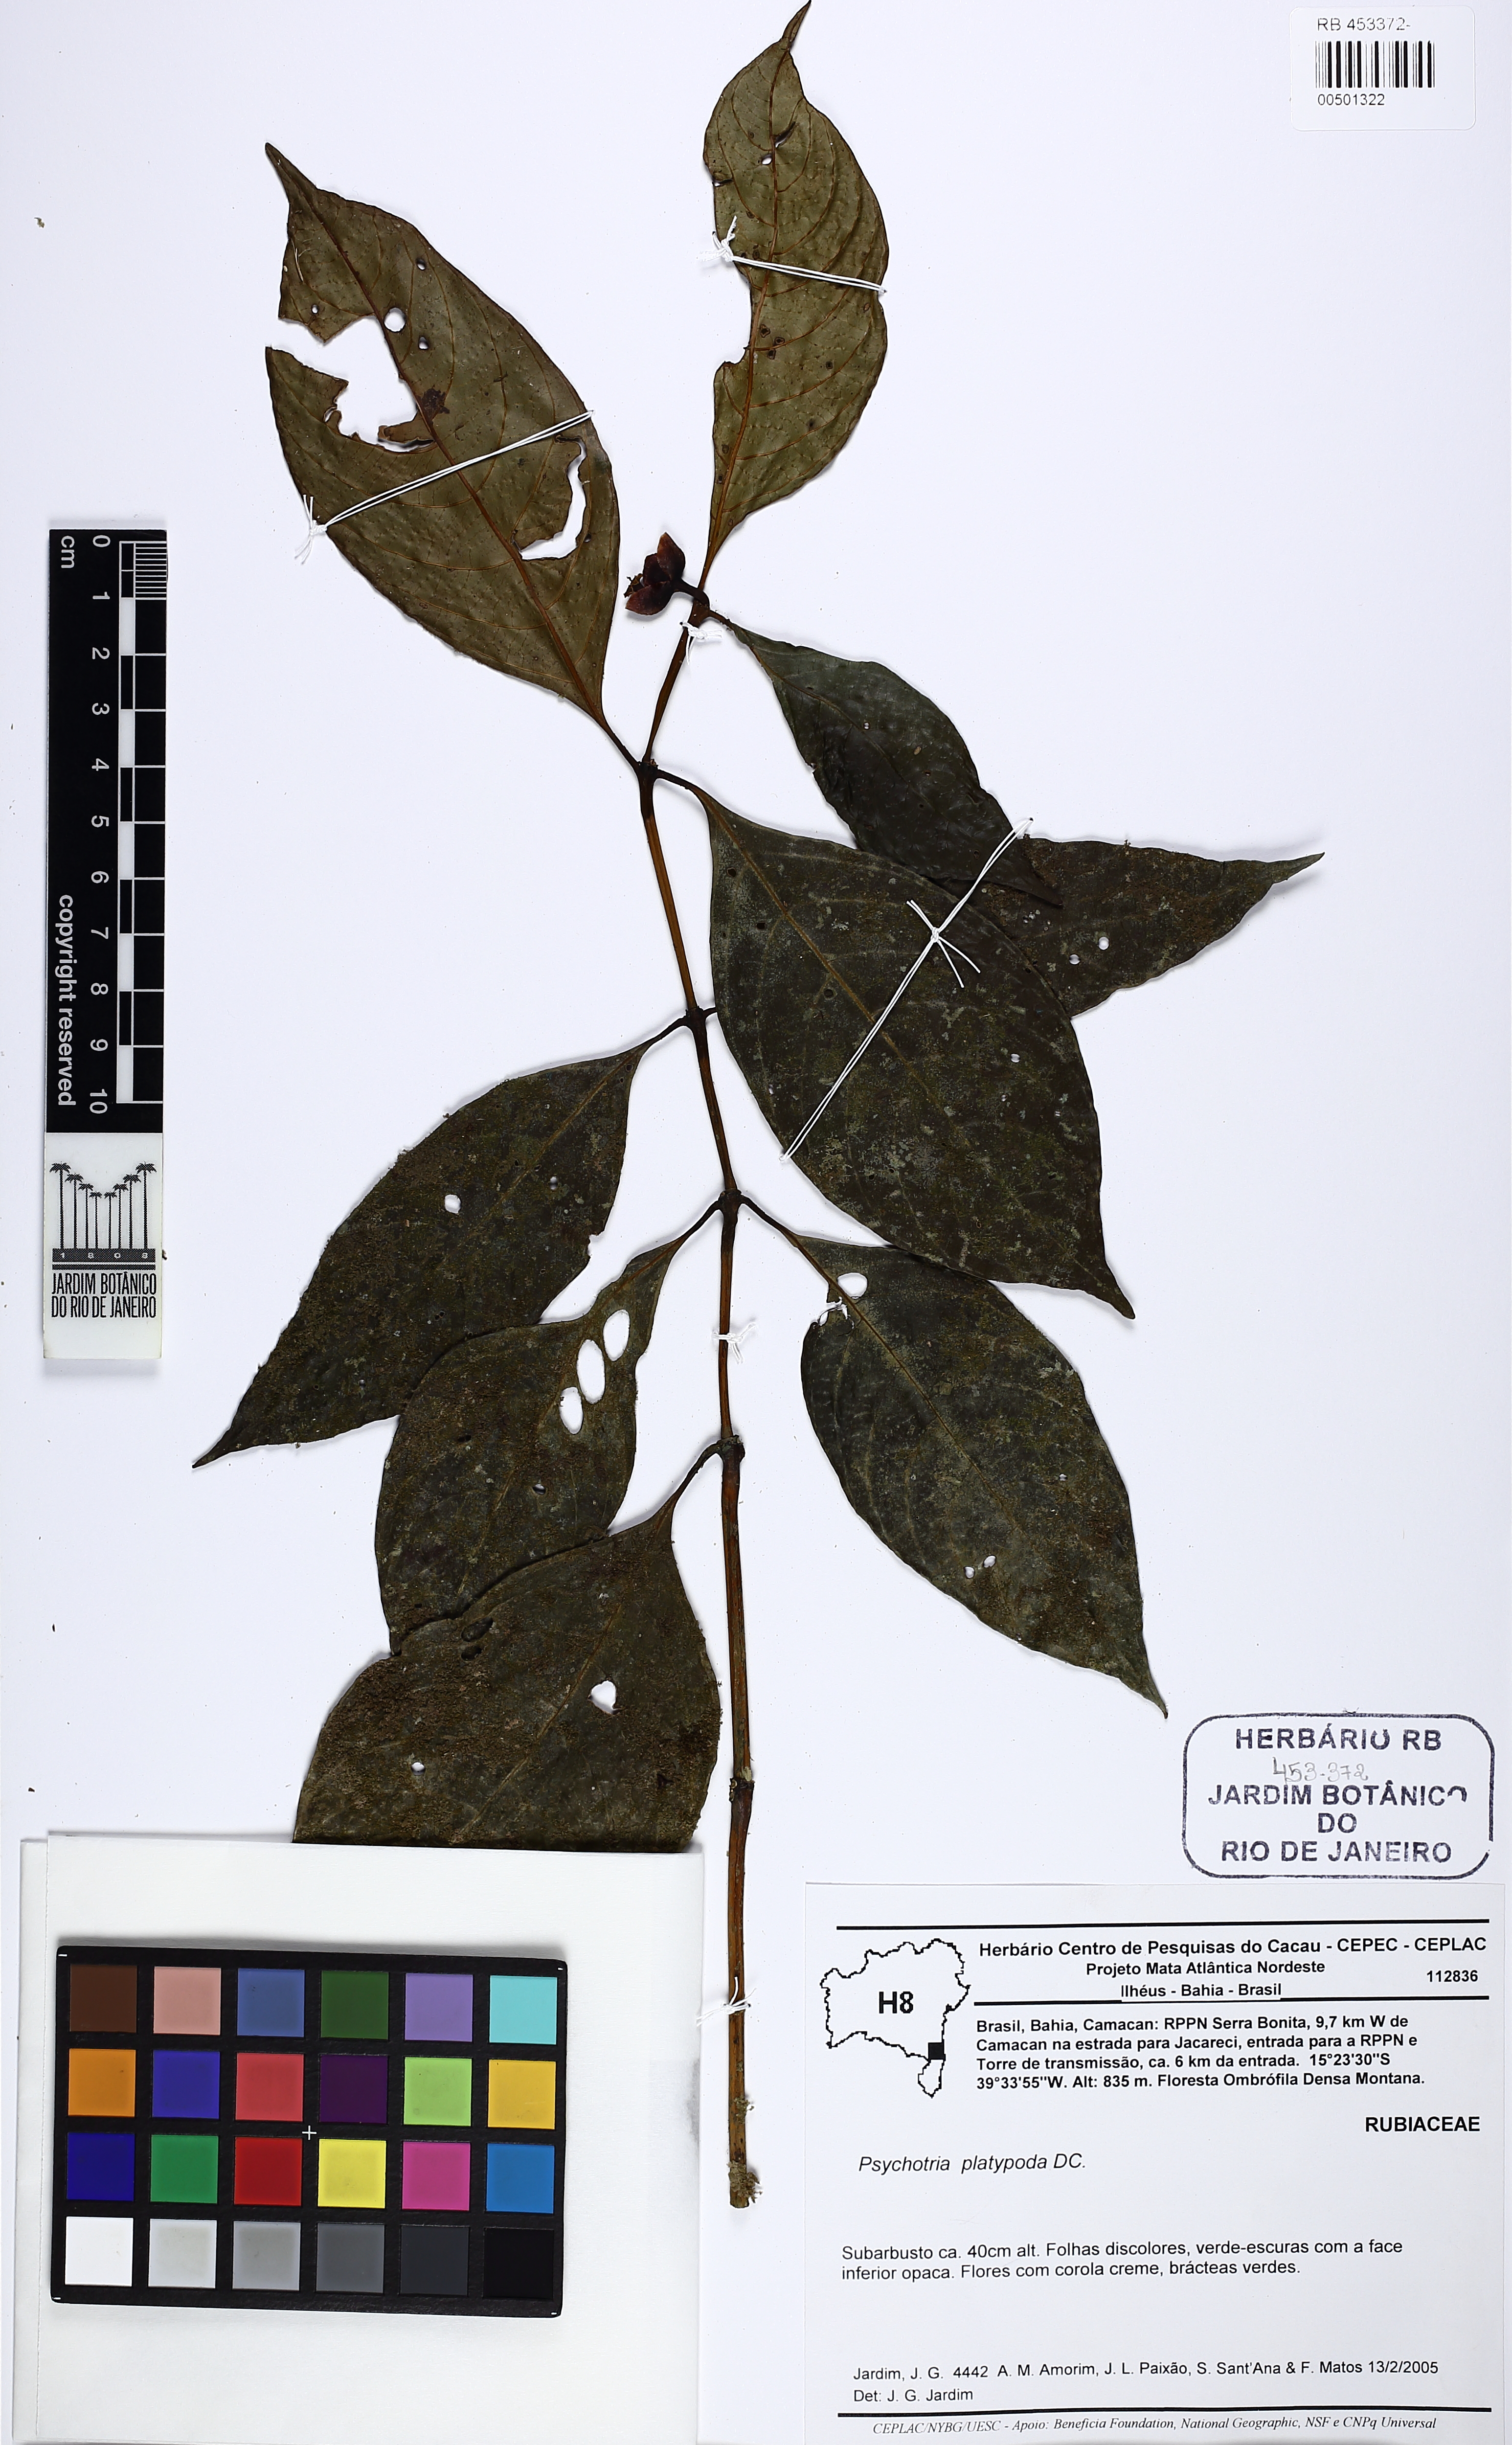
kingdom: Plantae
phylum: Tracheophyta
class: Magnoliopsida
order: Gentianales
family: Rubiaceae
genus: Palicourea
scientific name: Palicourea dichotoma
